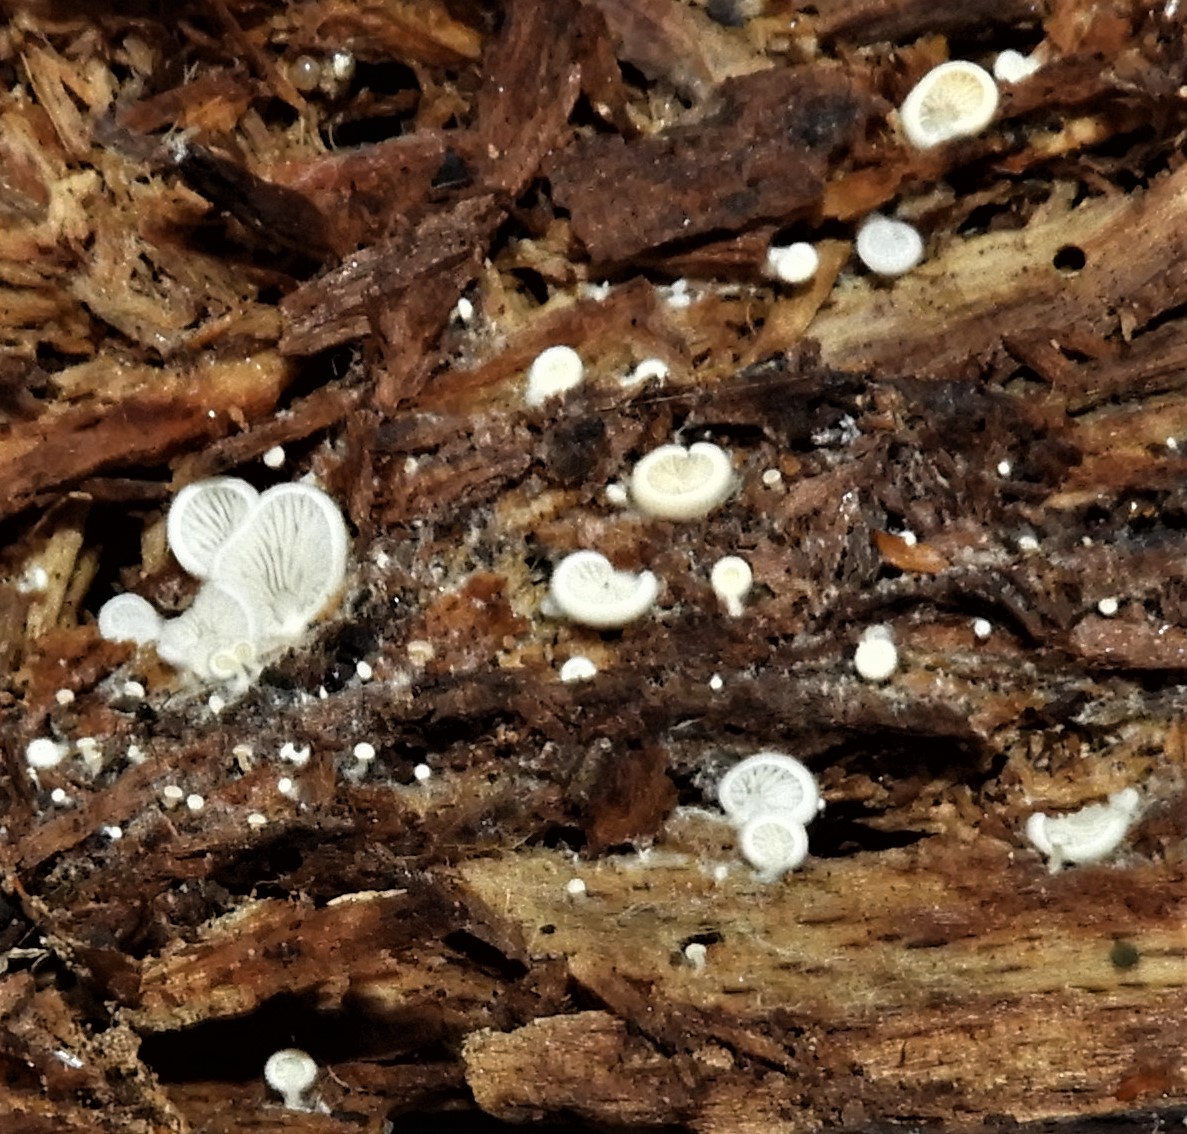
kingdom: Fungi
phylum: Basidiomycota
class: Agaricomycetes
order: Agaricales
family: Entolomataceae
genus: Clitopilus
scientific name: Clitopilus hobsonii
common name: Miller's oysterling
